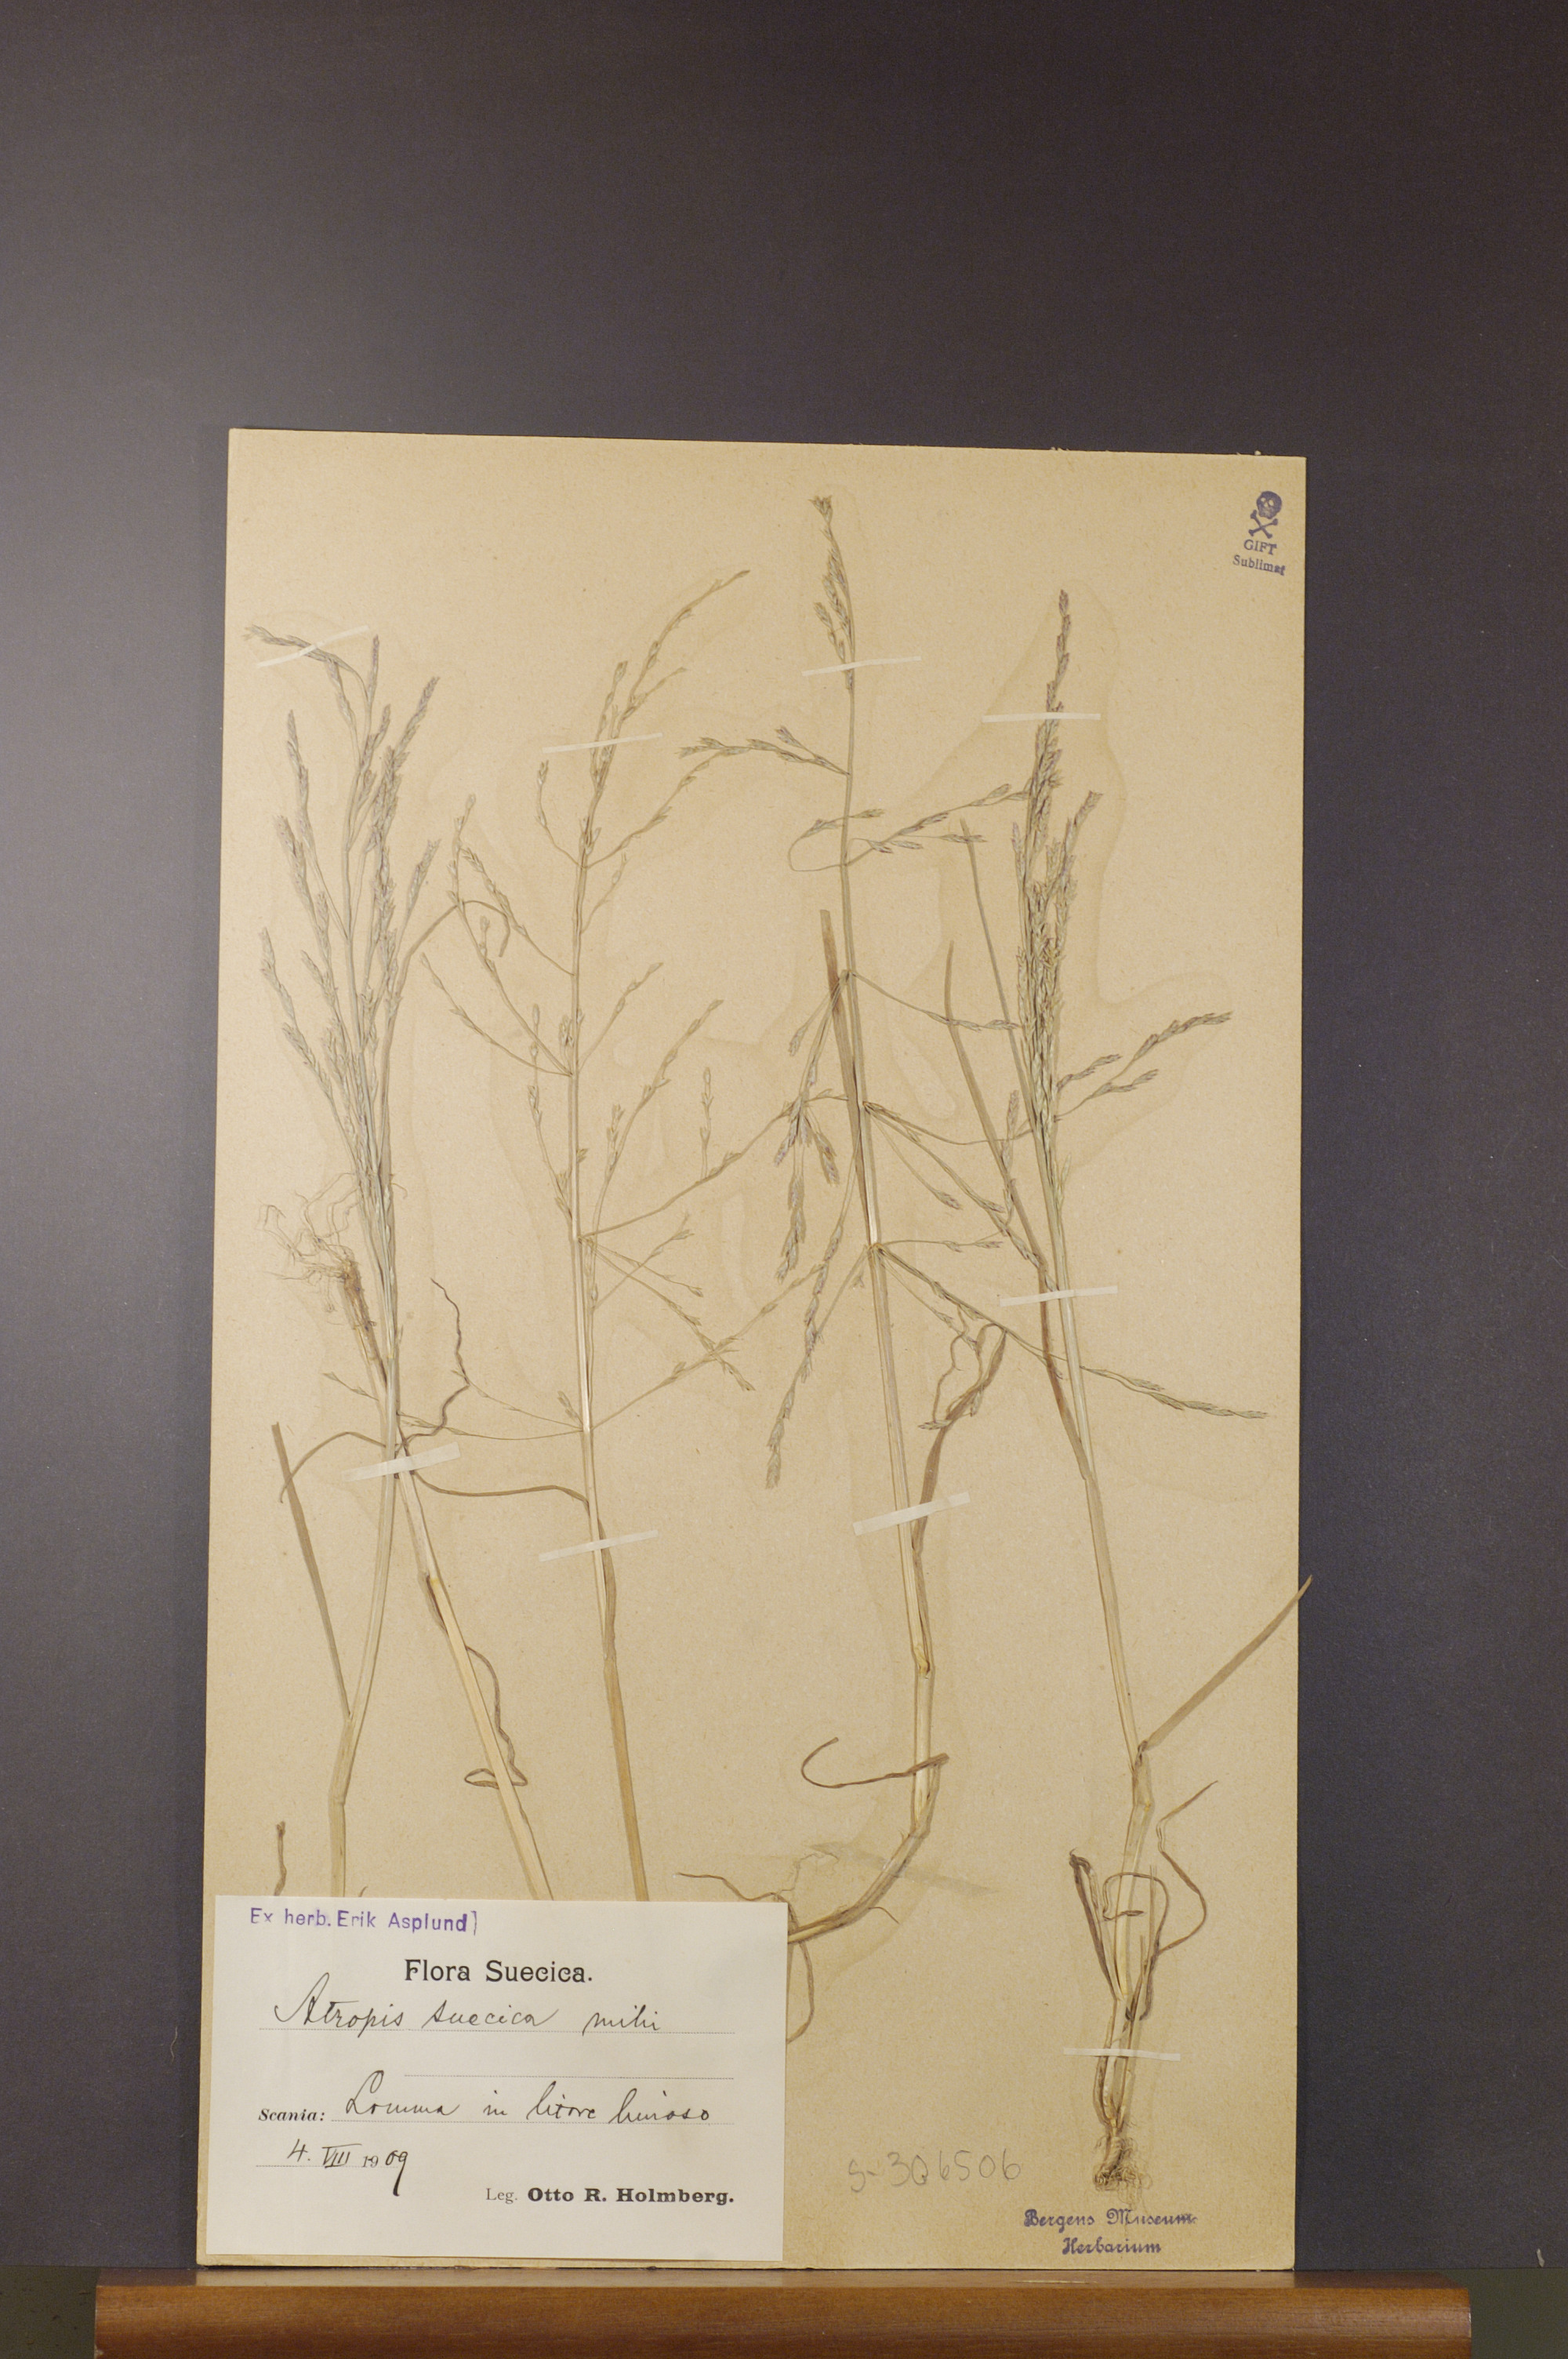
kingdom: Plantae
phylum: Tracheophyta
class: Liliopsida
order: Poales
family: Poaceae
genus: Puccinellia
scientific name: Puccinellia distans
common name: Weeping alkaligrass
